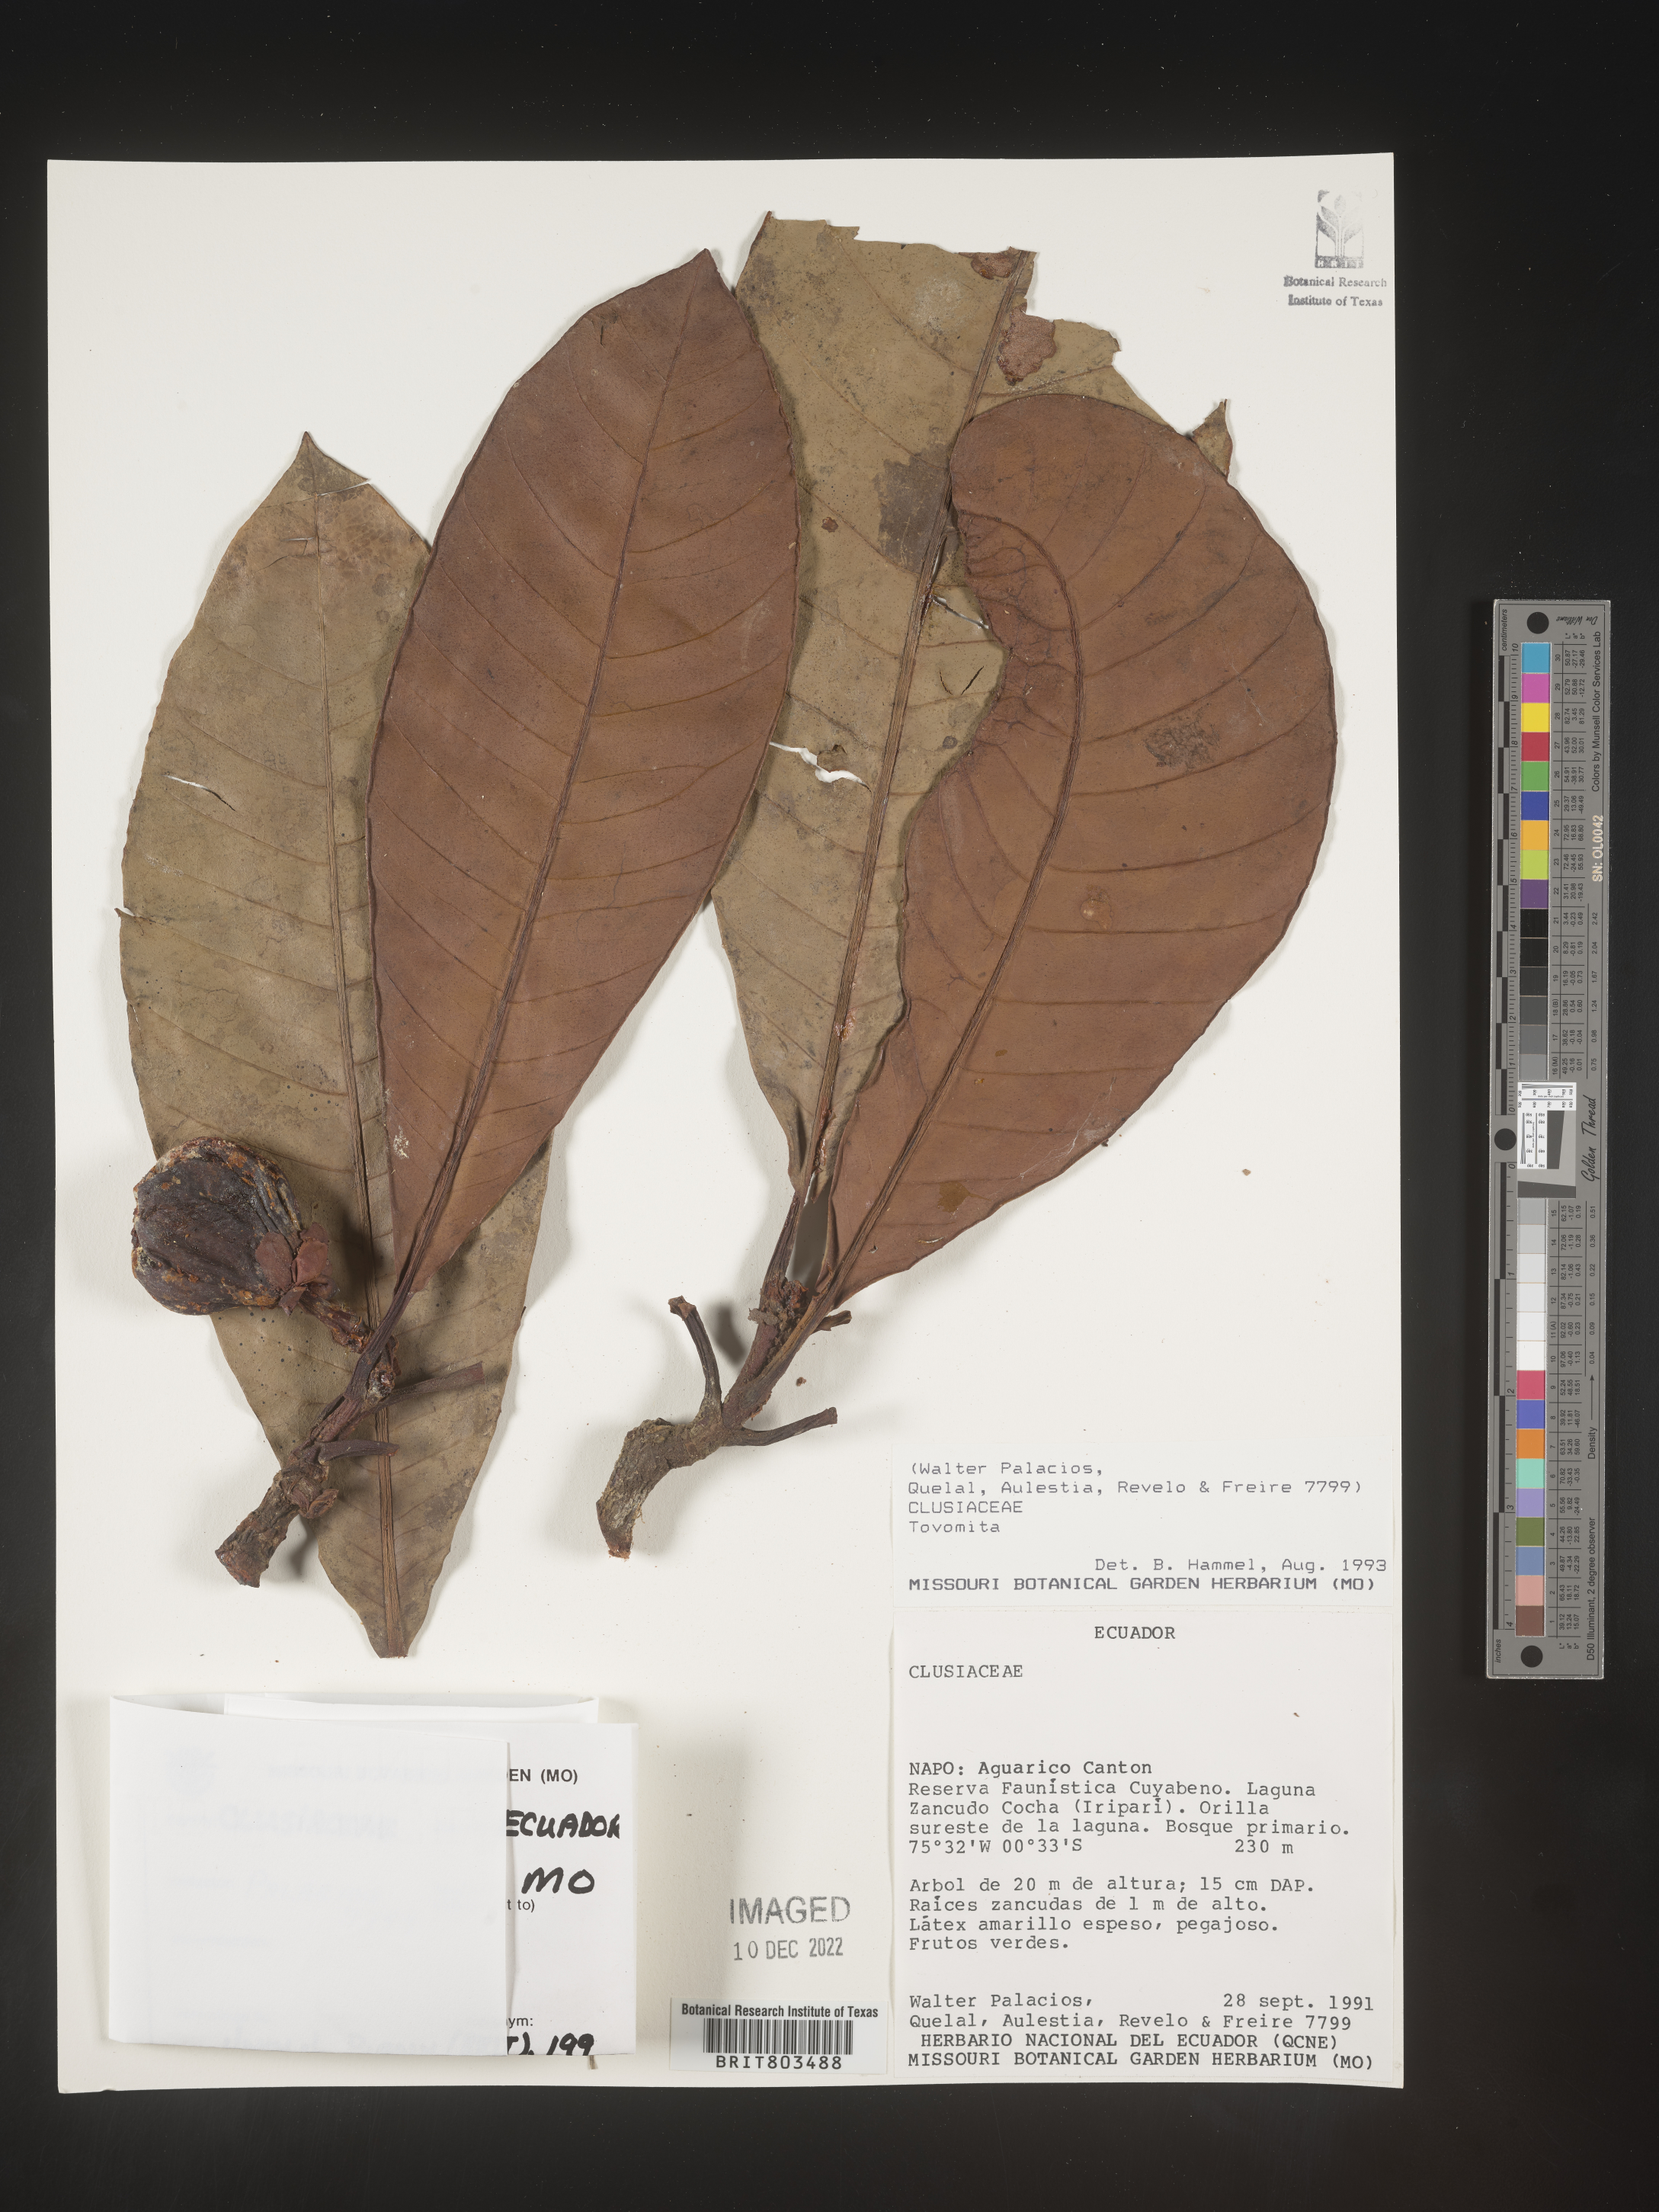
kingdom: Plantae
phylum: Tracheophyta
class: Magnoliopsida
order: Malpighiales
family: Clusiaceae
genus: Tovomita
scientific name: Tovomita
